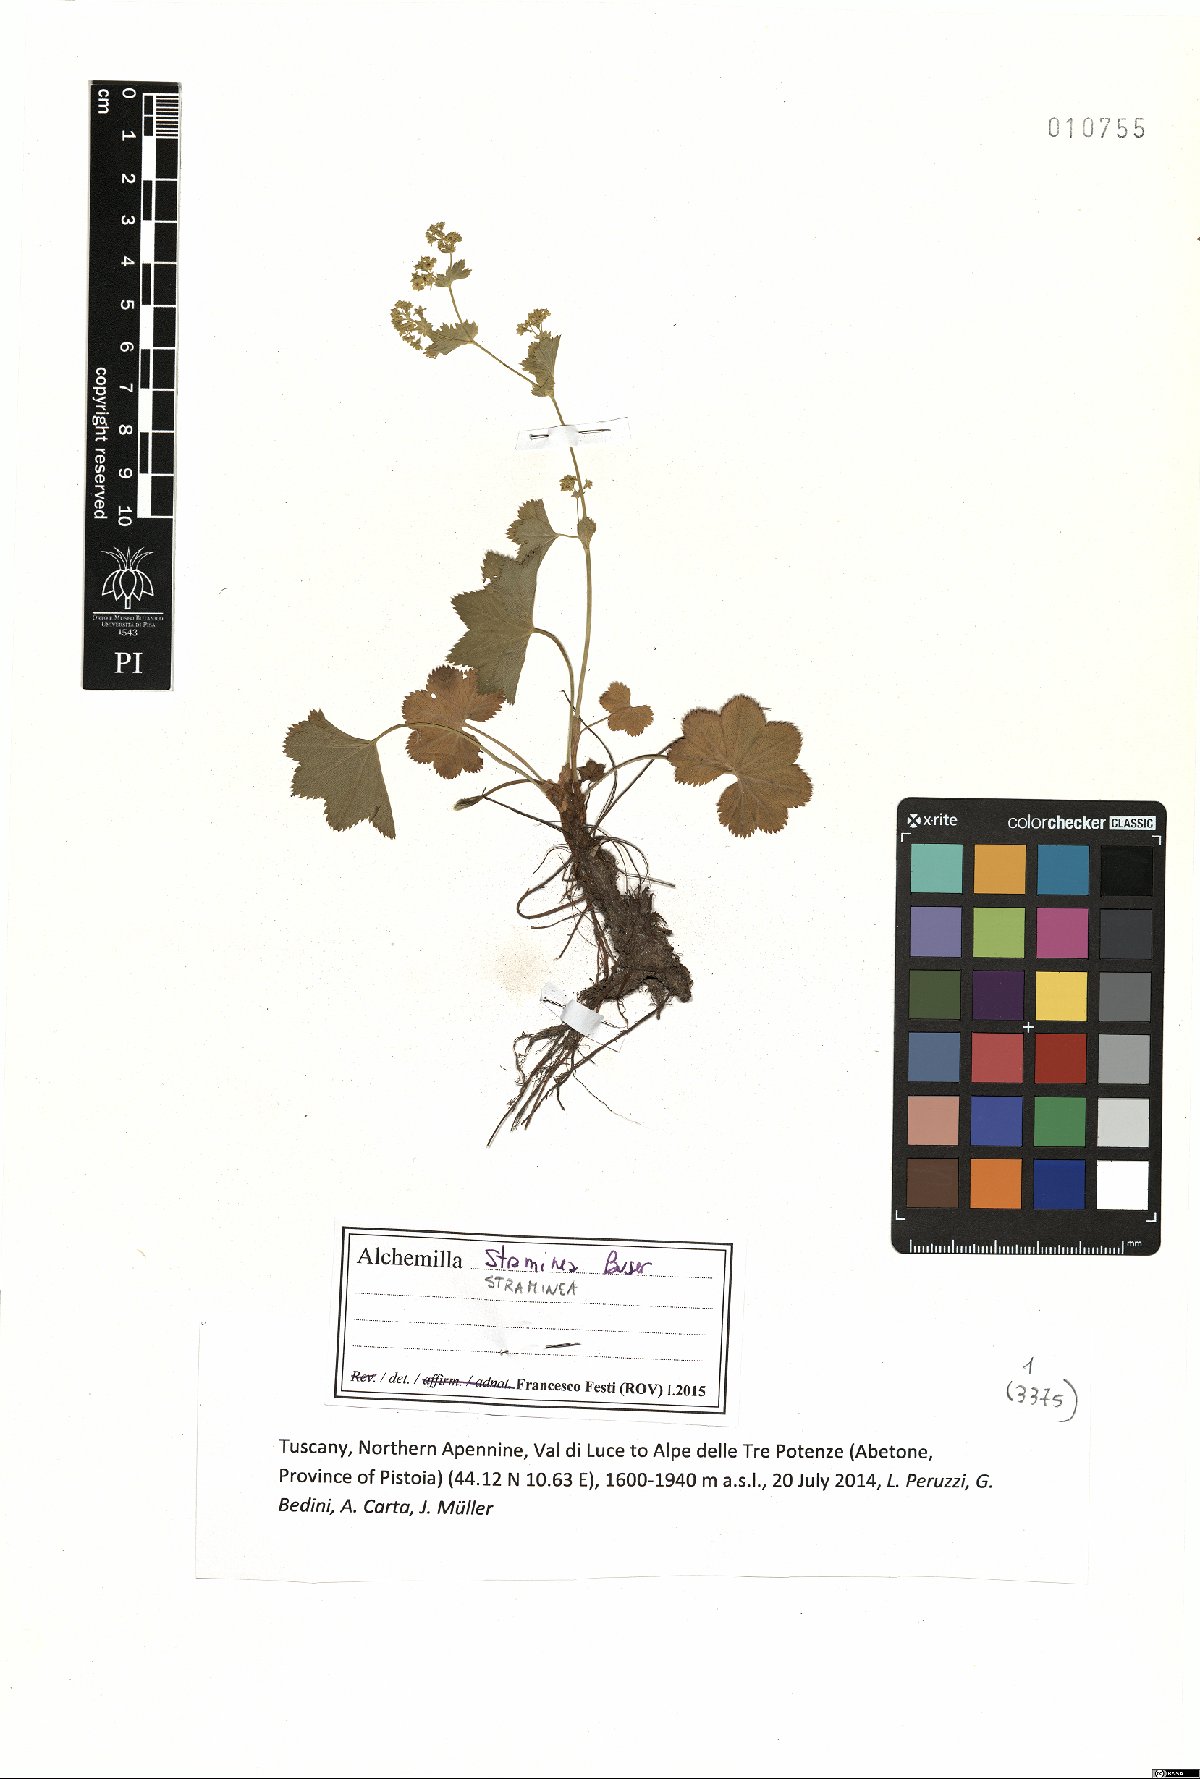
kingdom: Plantae
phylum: Tracheophyta
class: Magnoliopsida
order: Rosales
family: Rosaceae
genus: Alchemilla
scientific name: Alchemilla straminea
